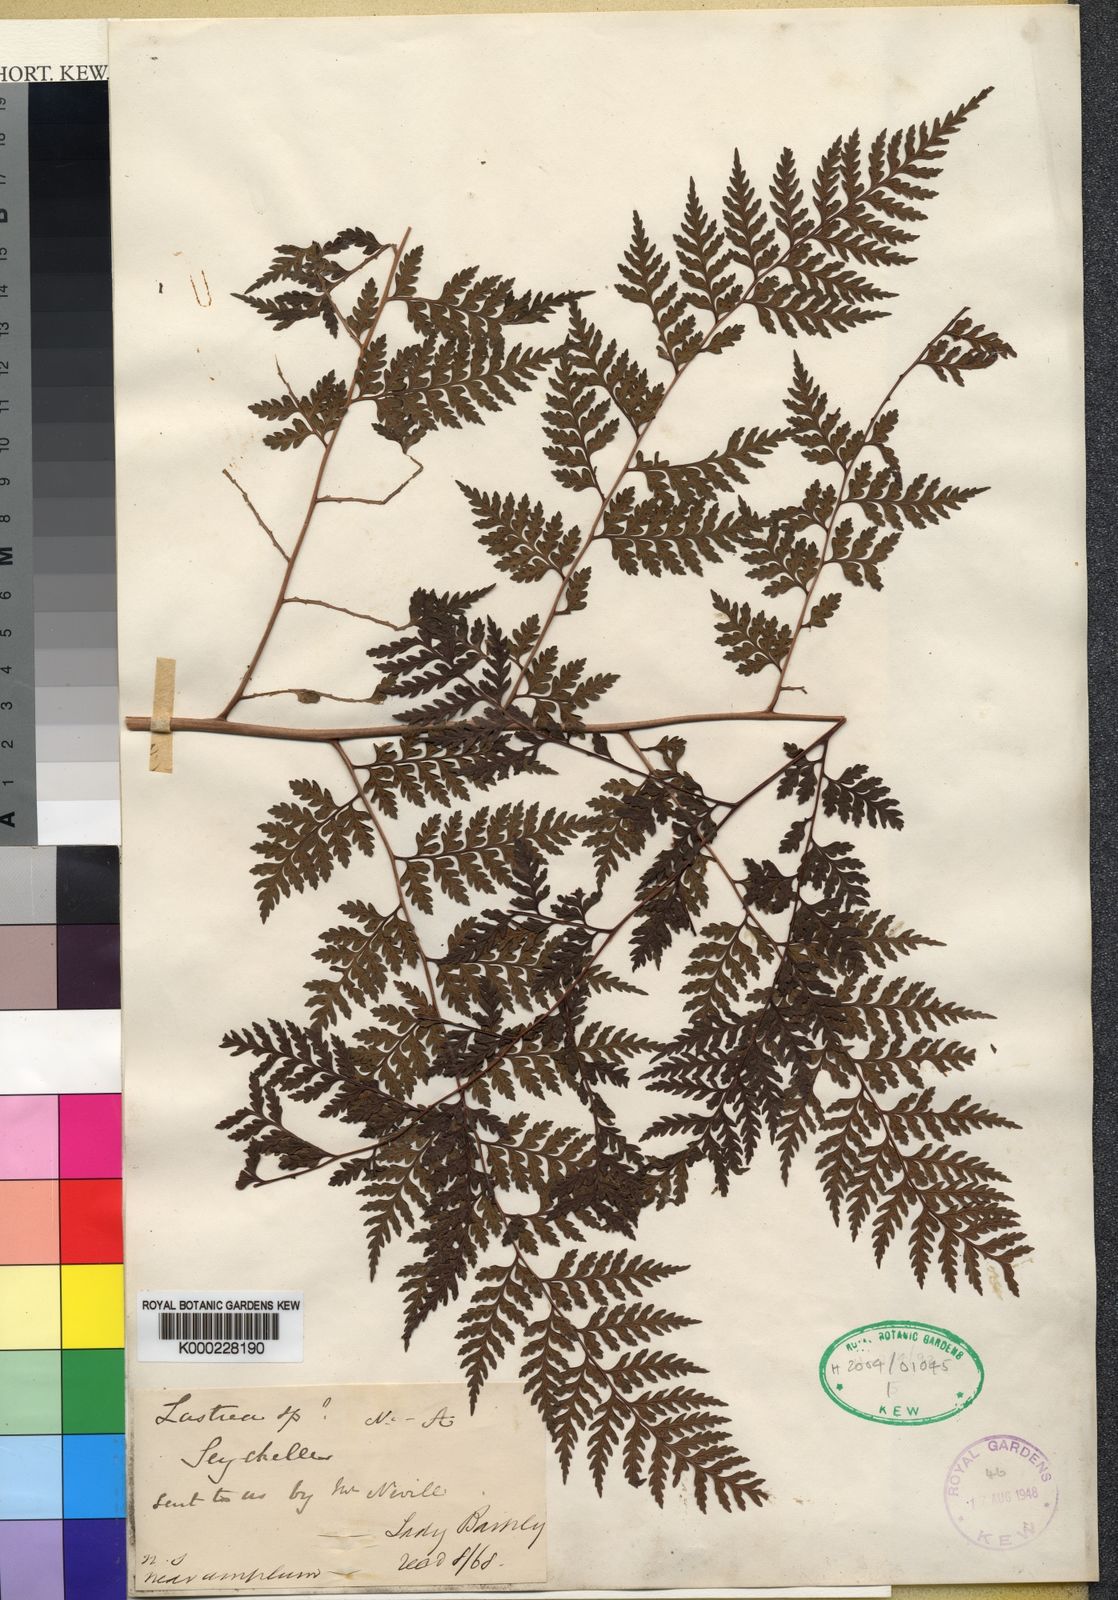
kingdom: Plantae
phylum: Tracheophyta
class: Polypodiopsida
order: Polypodiales
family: Dryopteridaceae
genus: Dryopteris
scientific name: Dryopteris wardii
